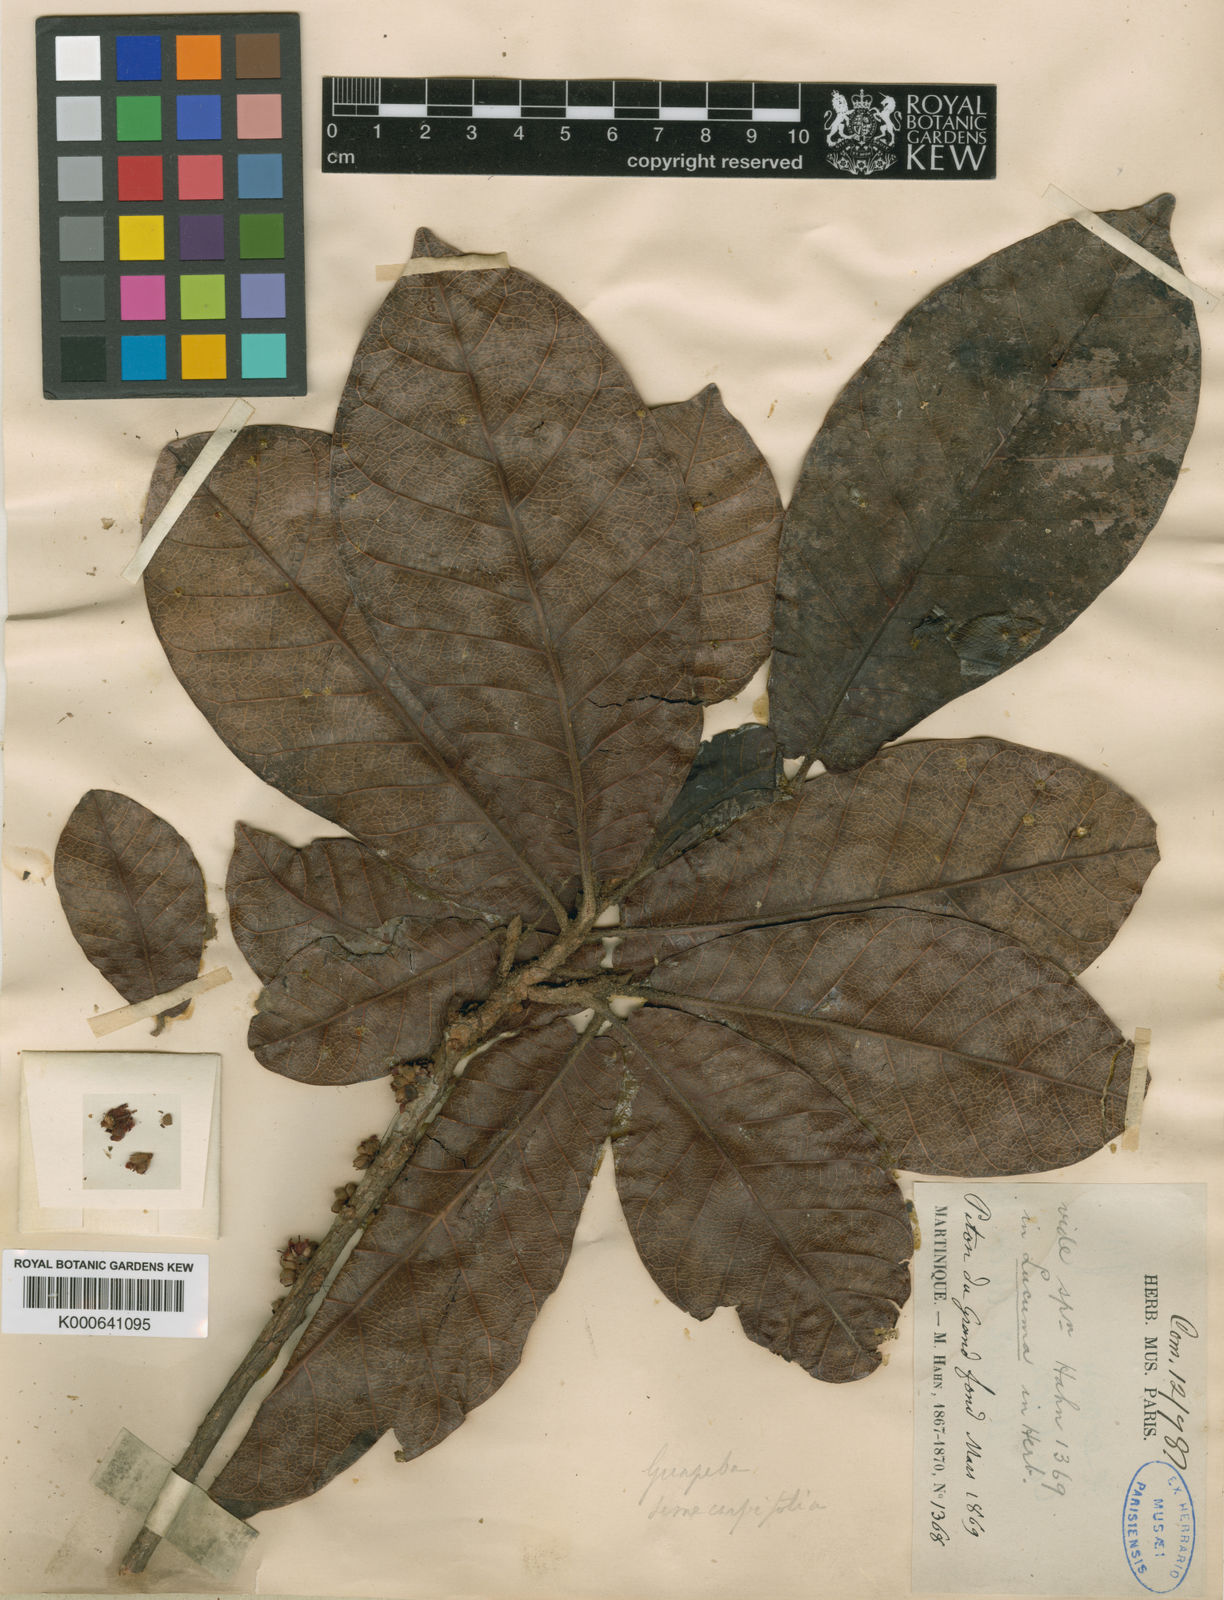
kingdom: Plantae
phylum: Tracheophyta
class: Magnoliopsida
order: Ericales
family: Sapotaceae
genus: Pouteria
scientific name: Pouteria semecarpifolia
